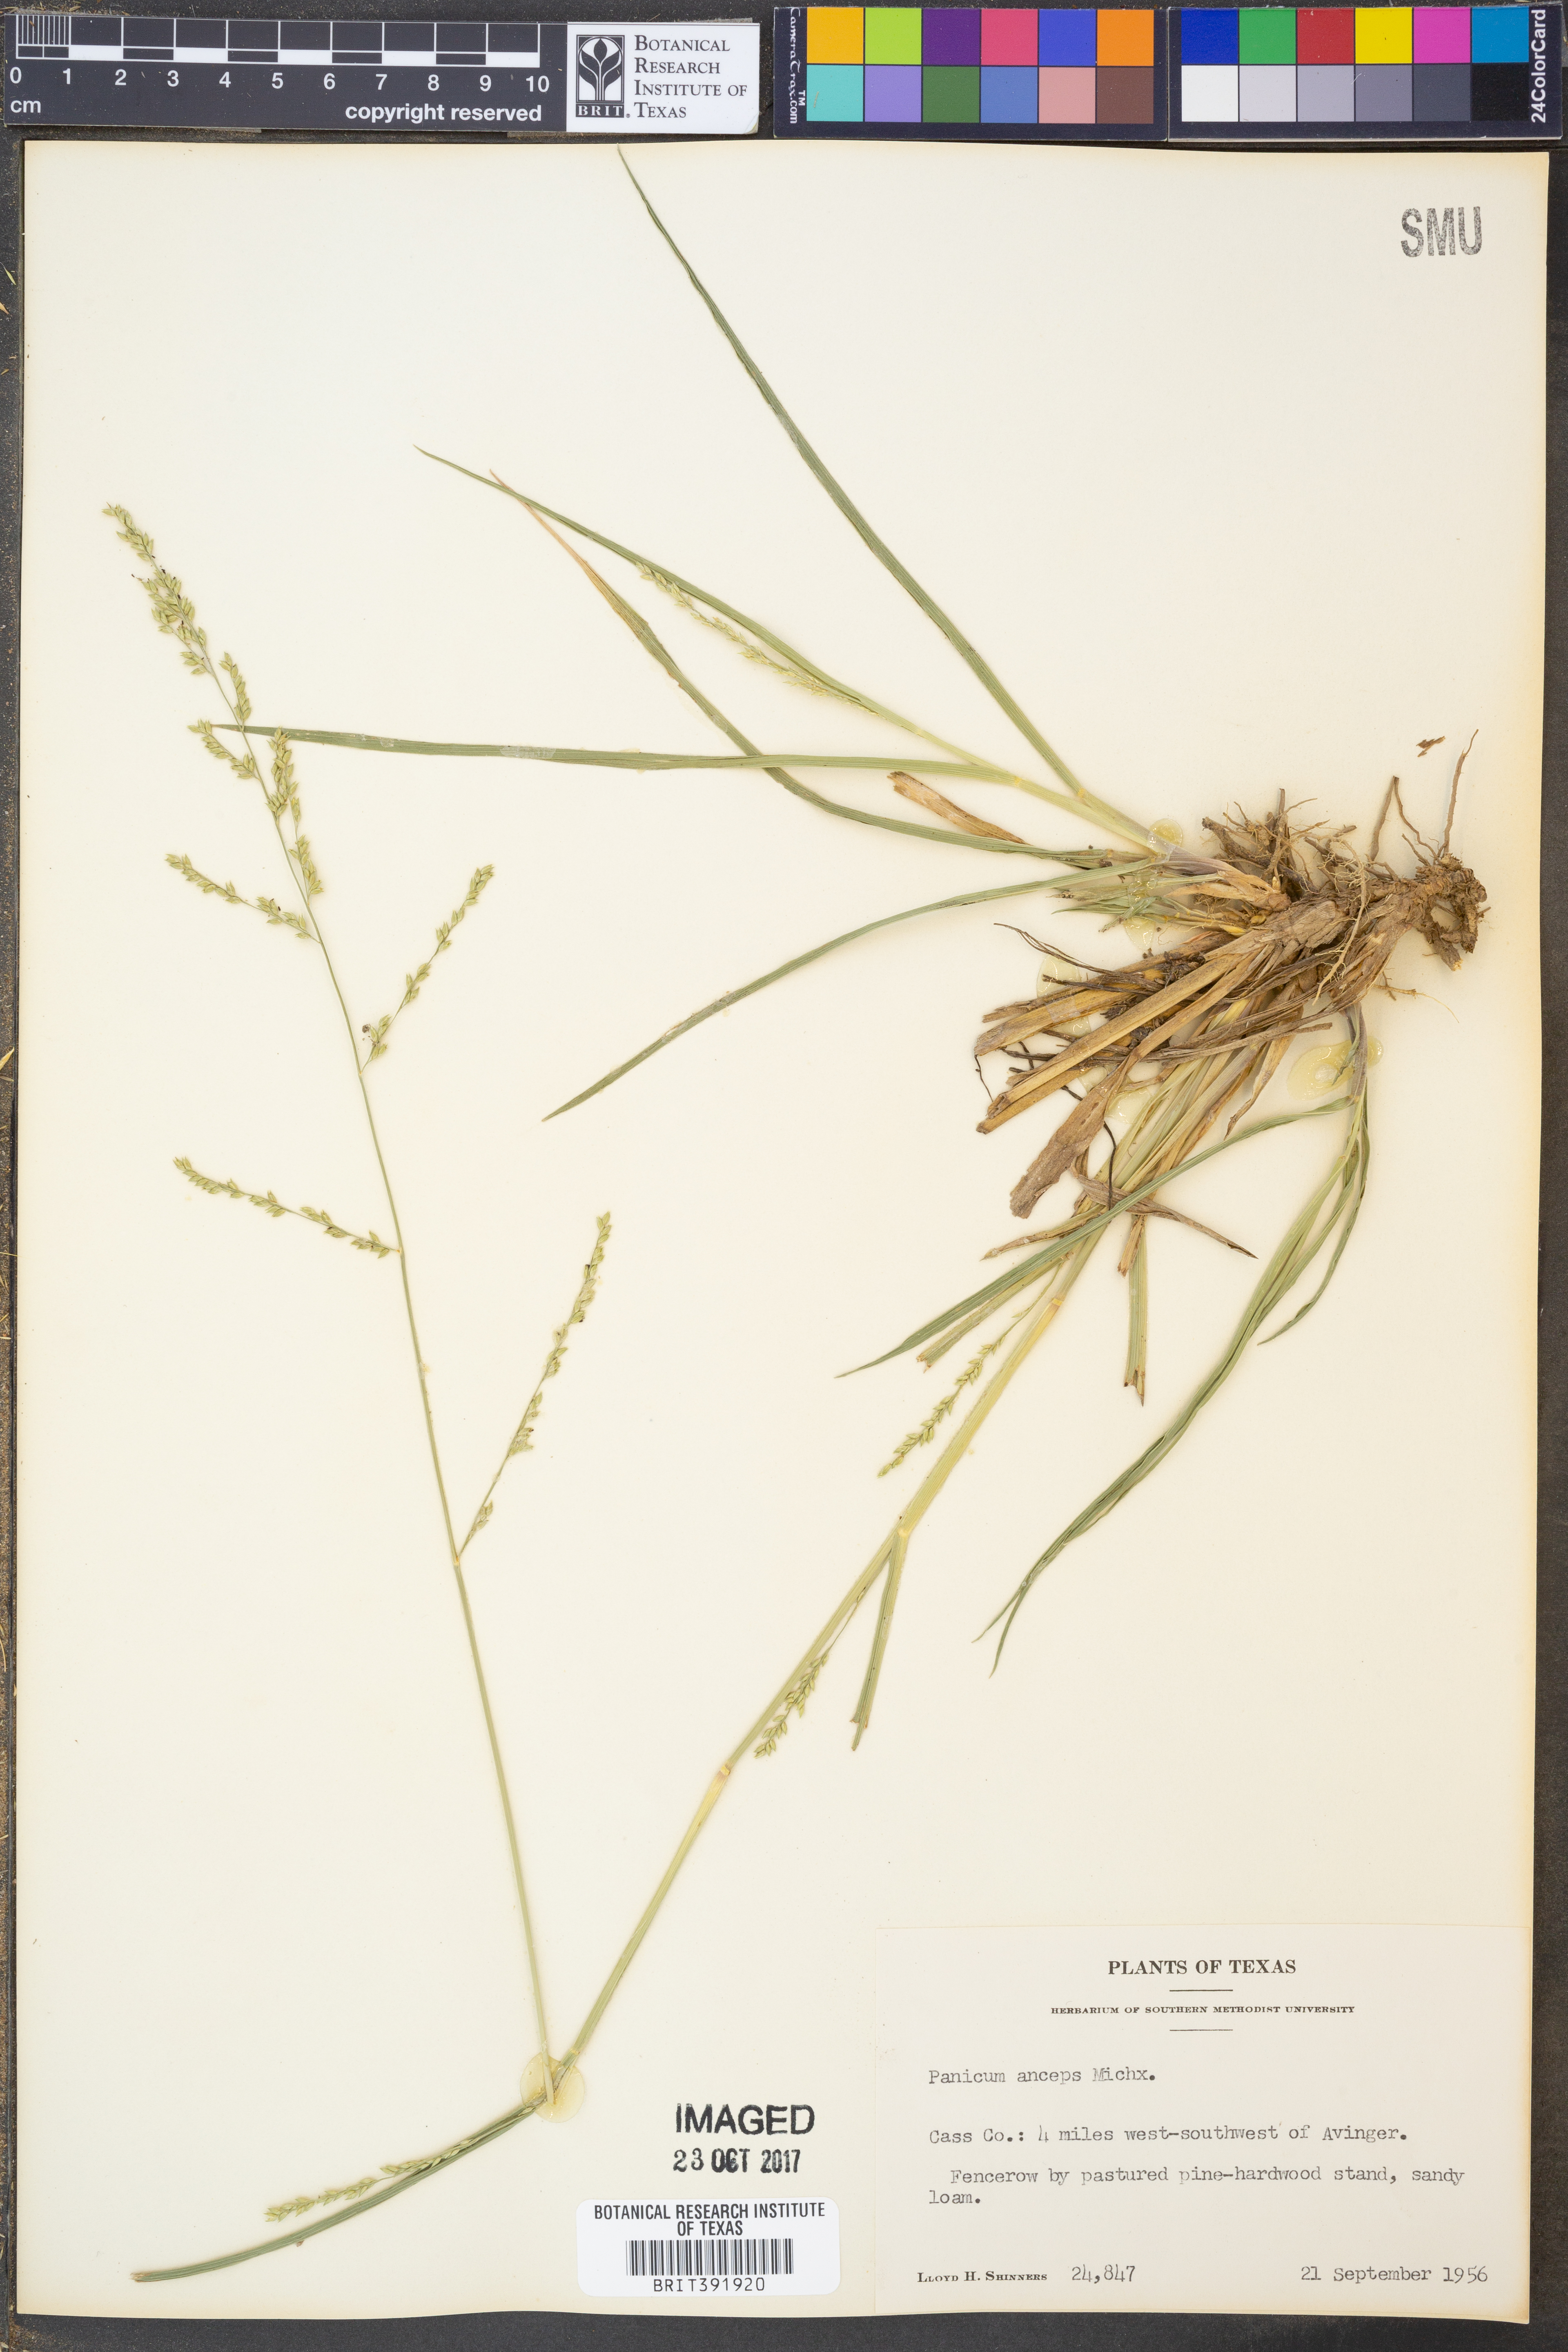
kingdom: Plantae
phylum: Tracheophyta
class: Liliopsida
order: Poales
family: Poaceae
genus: Coleataenia
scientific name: Coleataenia anceps
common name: Beaked panic grass
